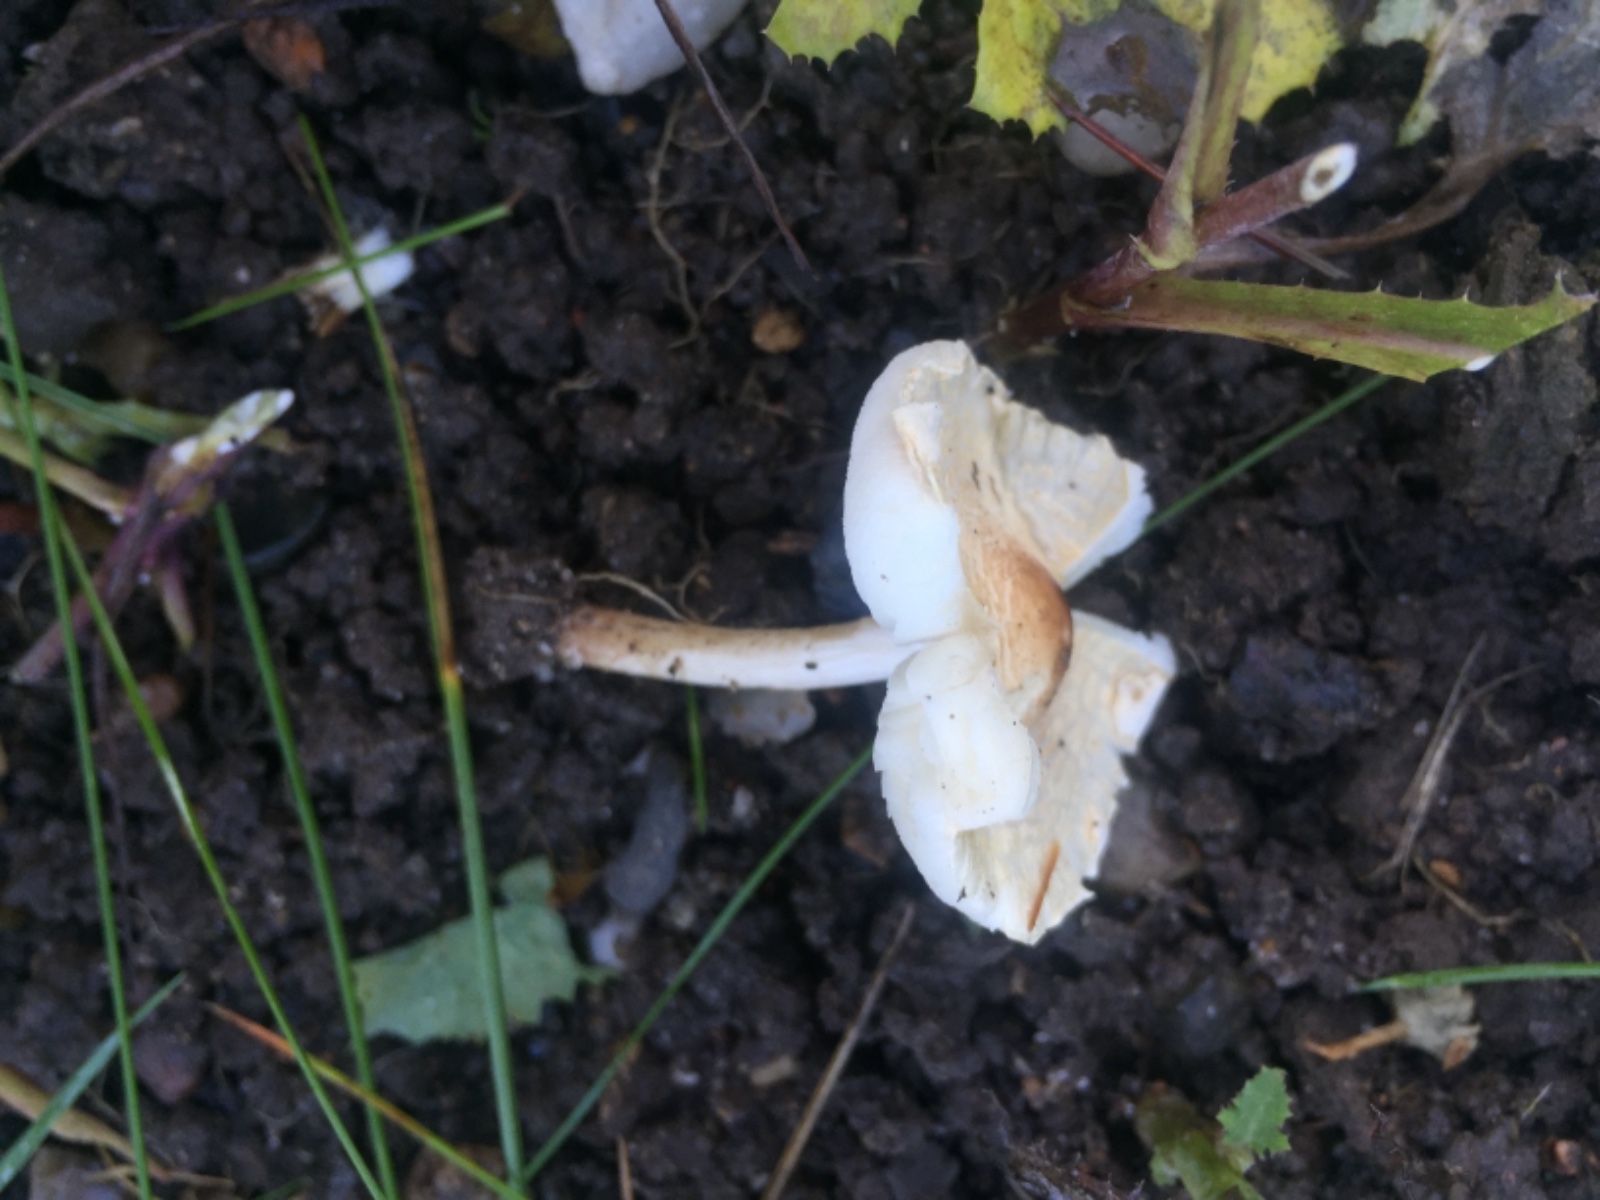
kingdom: Fungi
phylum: Basidiomycota
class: Agaricomycetes
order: Agaricales
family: Agaricaceae
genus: Lepiota
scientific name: Lepiota cristata
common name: stinkende parasolhat
